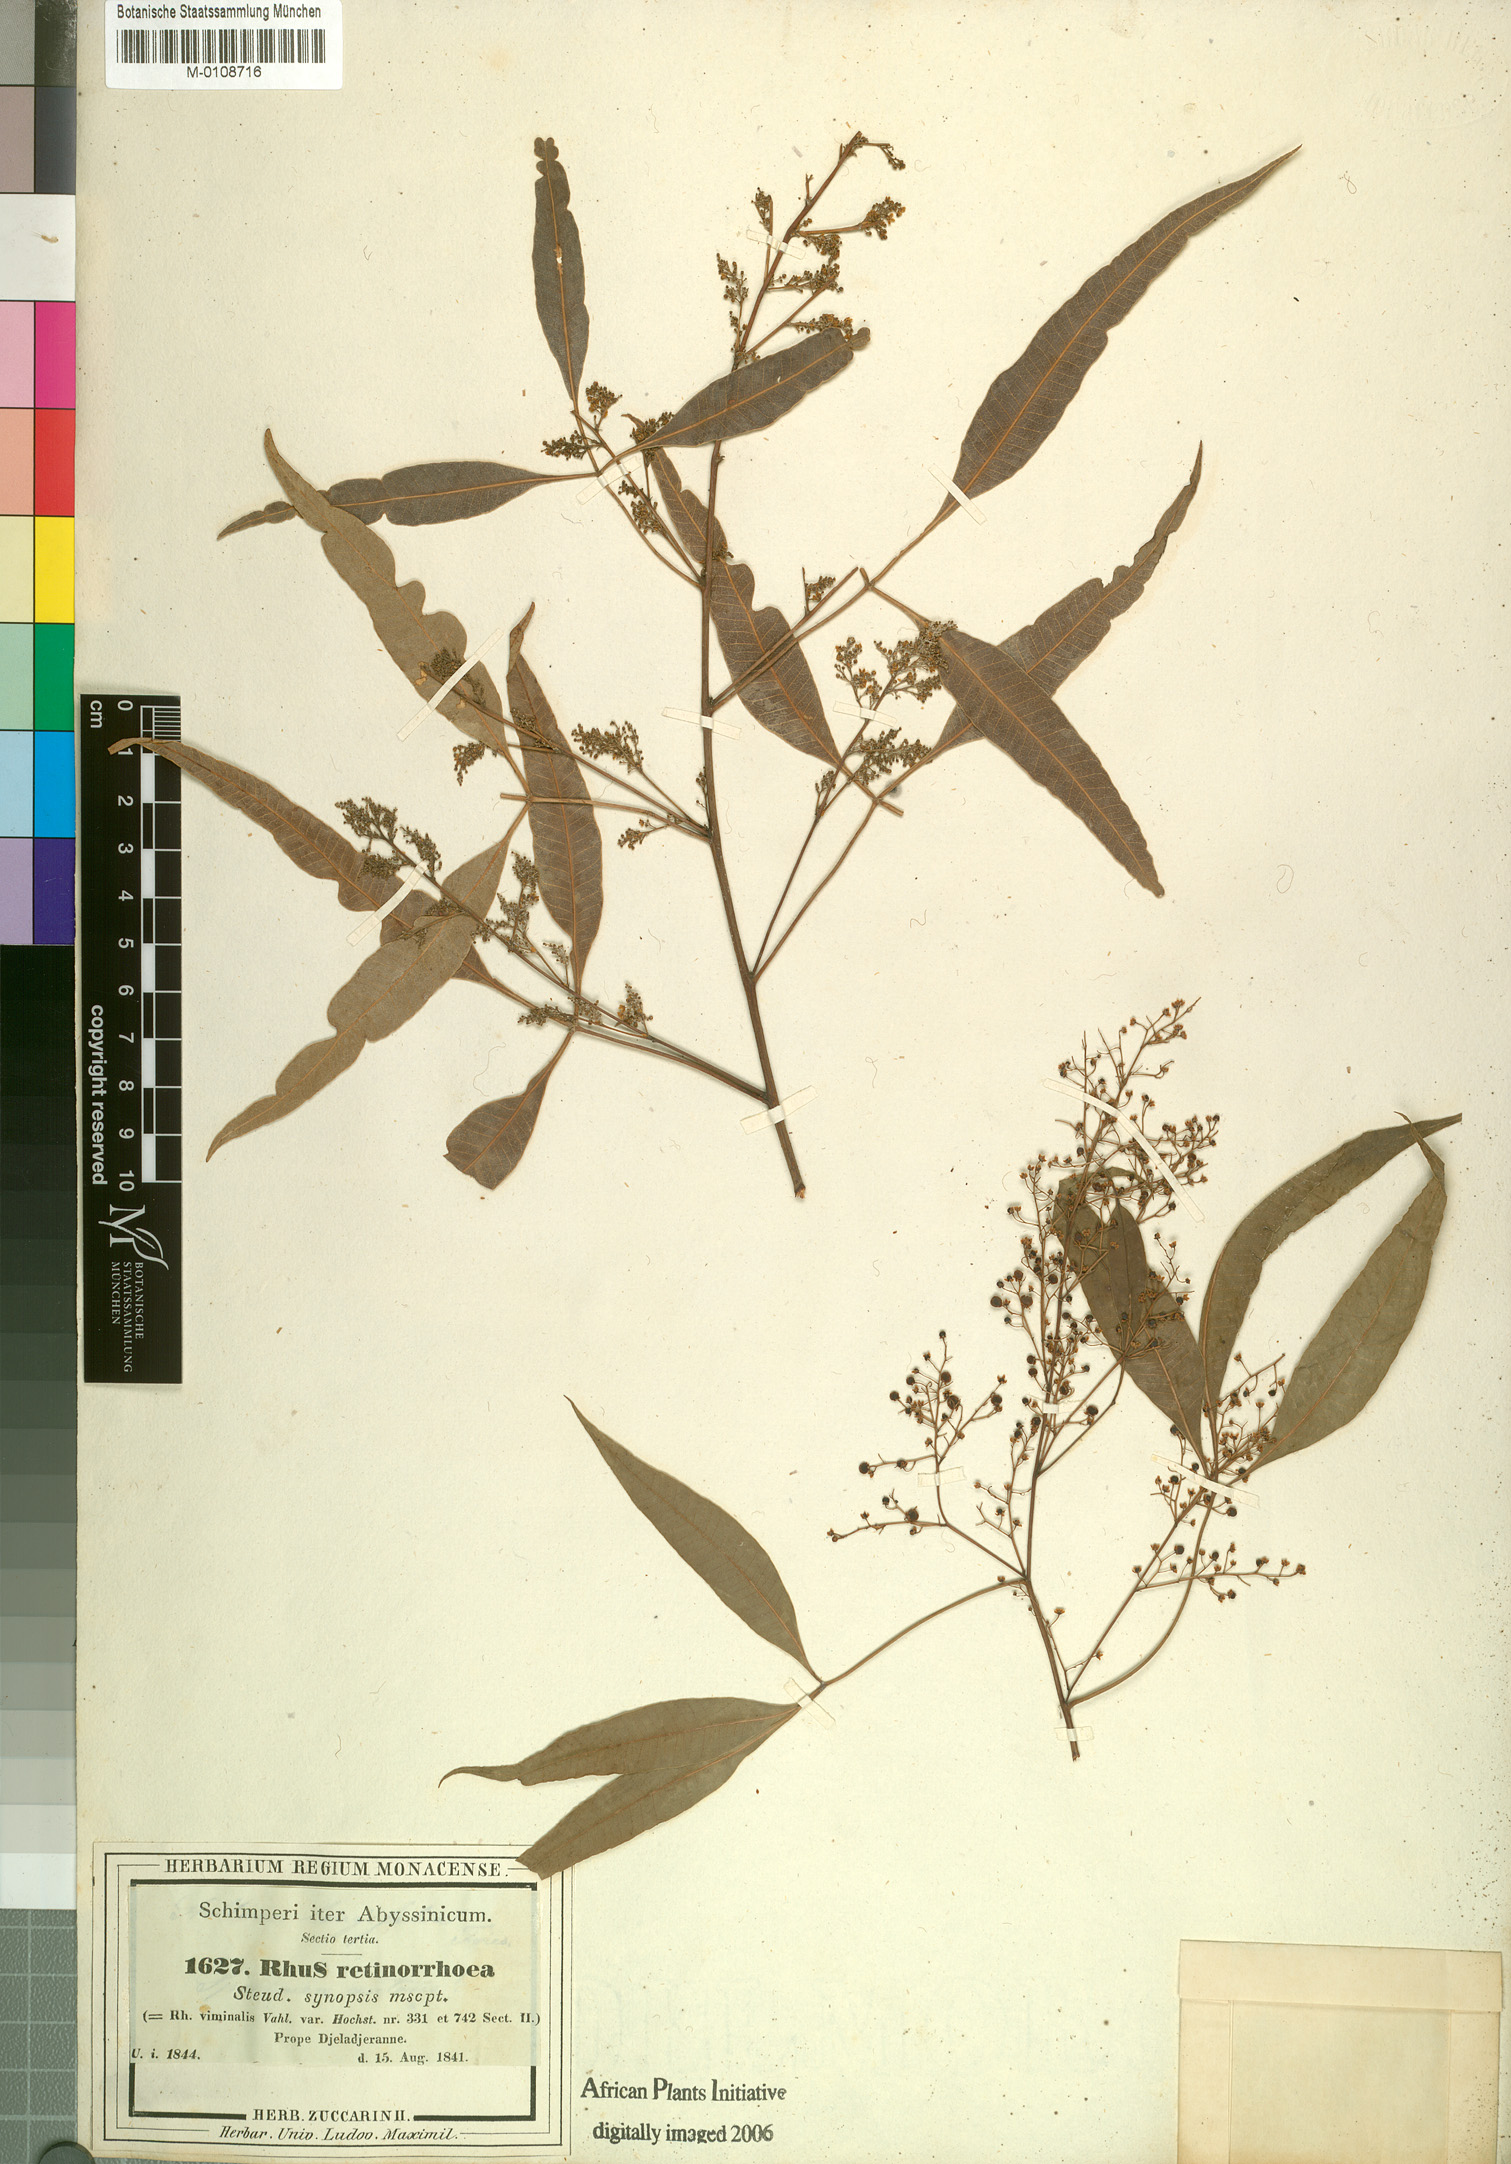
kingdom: Plantae
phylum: Tracheophyta
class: Magnoliopsida
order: Sapindales
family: Anacardiaceae
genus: Searsia
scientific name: Searsia laevigata
